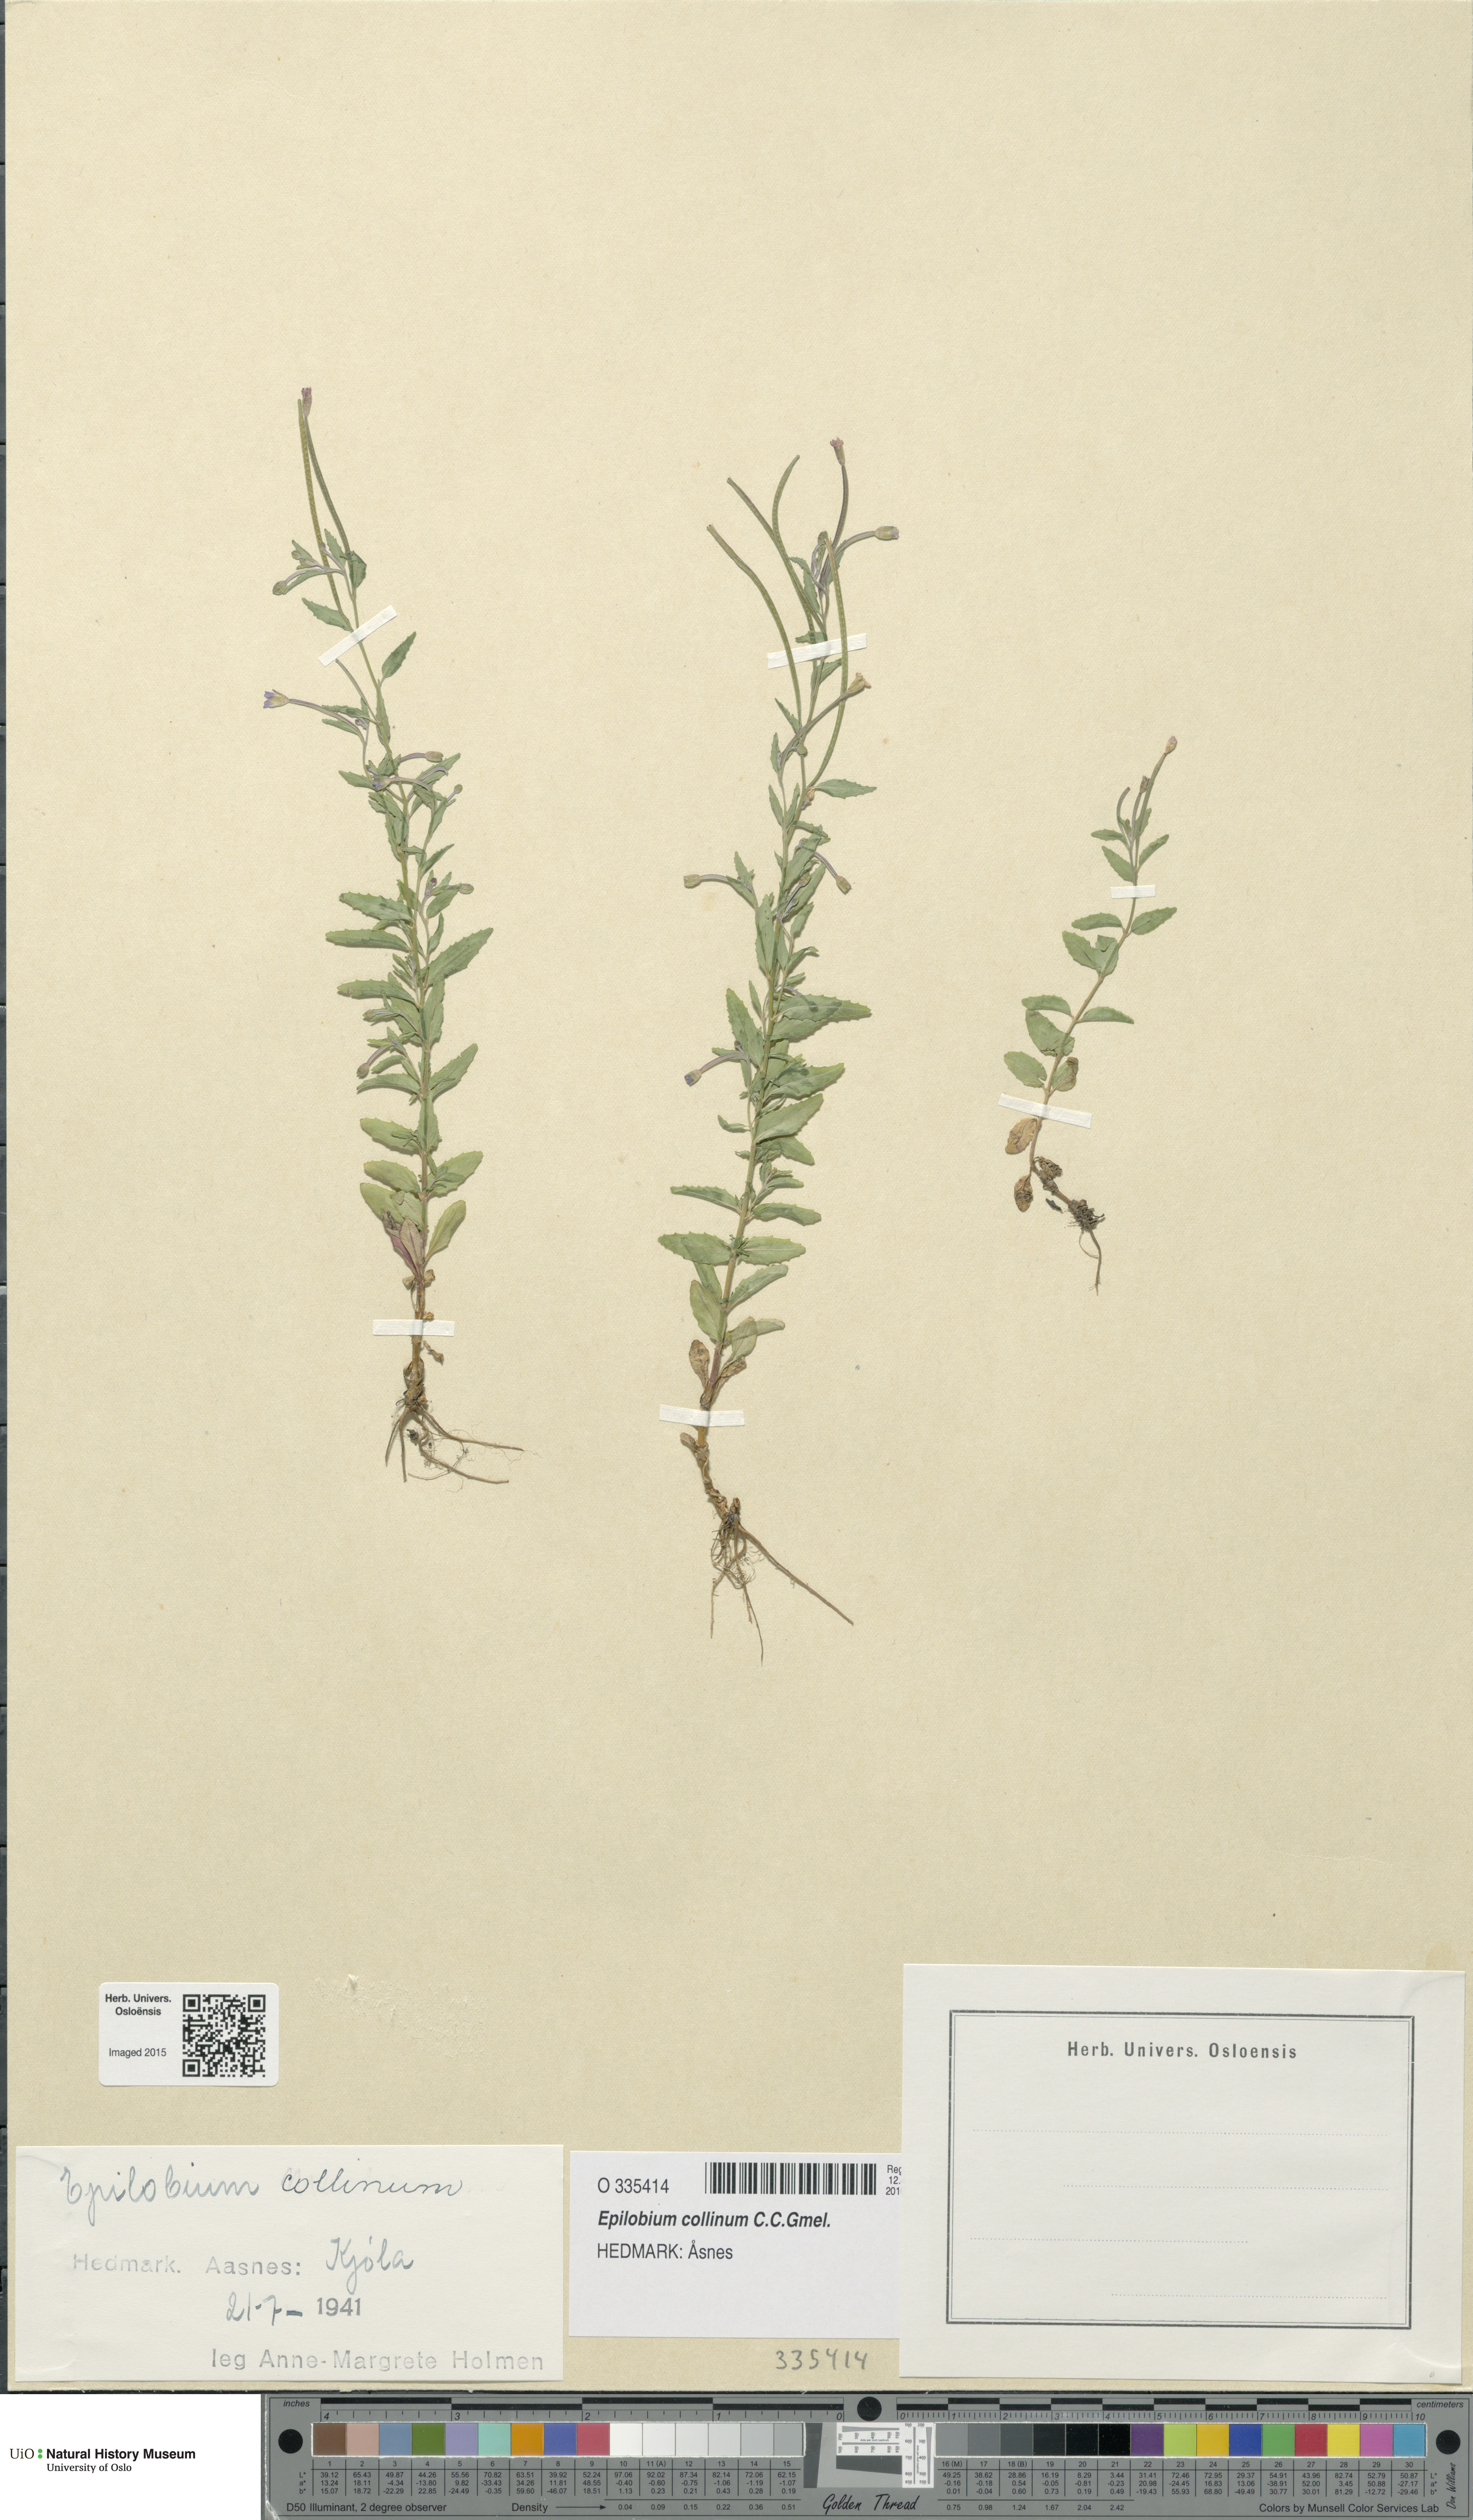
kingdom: Plantae
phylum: Tracheophyta
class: Magnoliopsida
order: Myrtales
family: Onagraceae
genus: Epilobium
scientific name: Epilobium collinum
